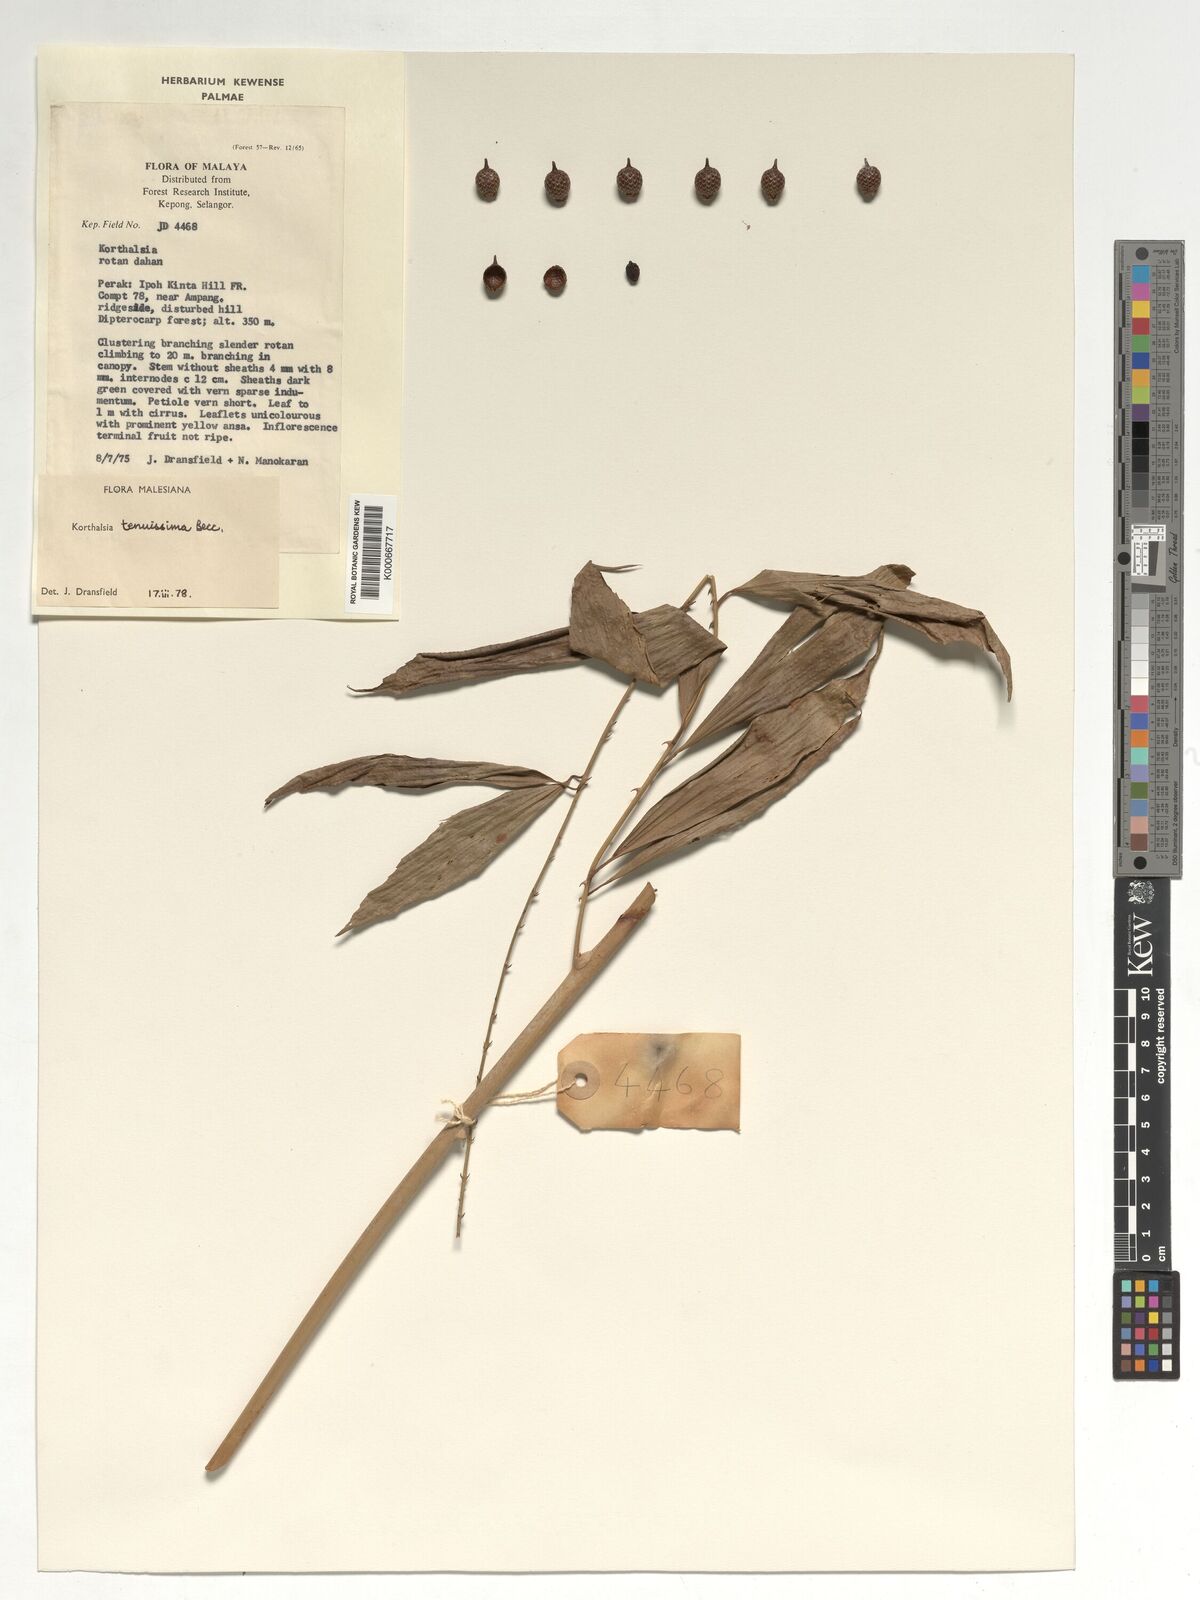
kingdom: Plantae
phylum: Tracheophyta
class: Liliopsida
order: Arecales
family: Arecaceae
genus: Korthalsia
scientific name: Korthalsia tenuissima
